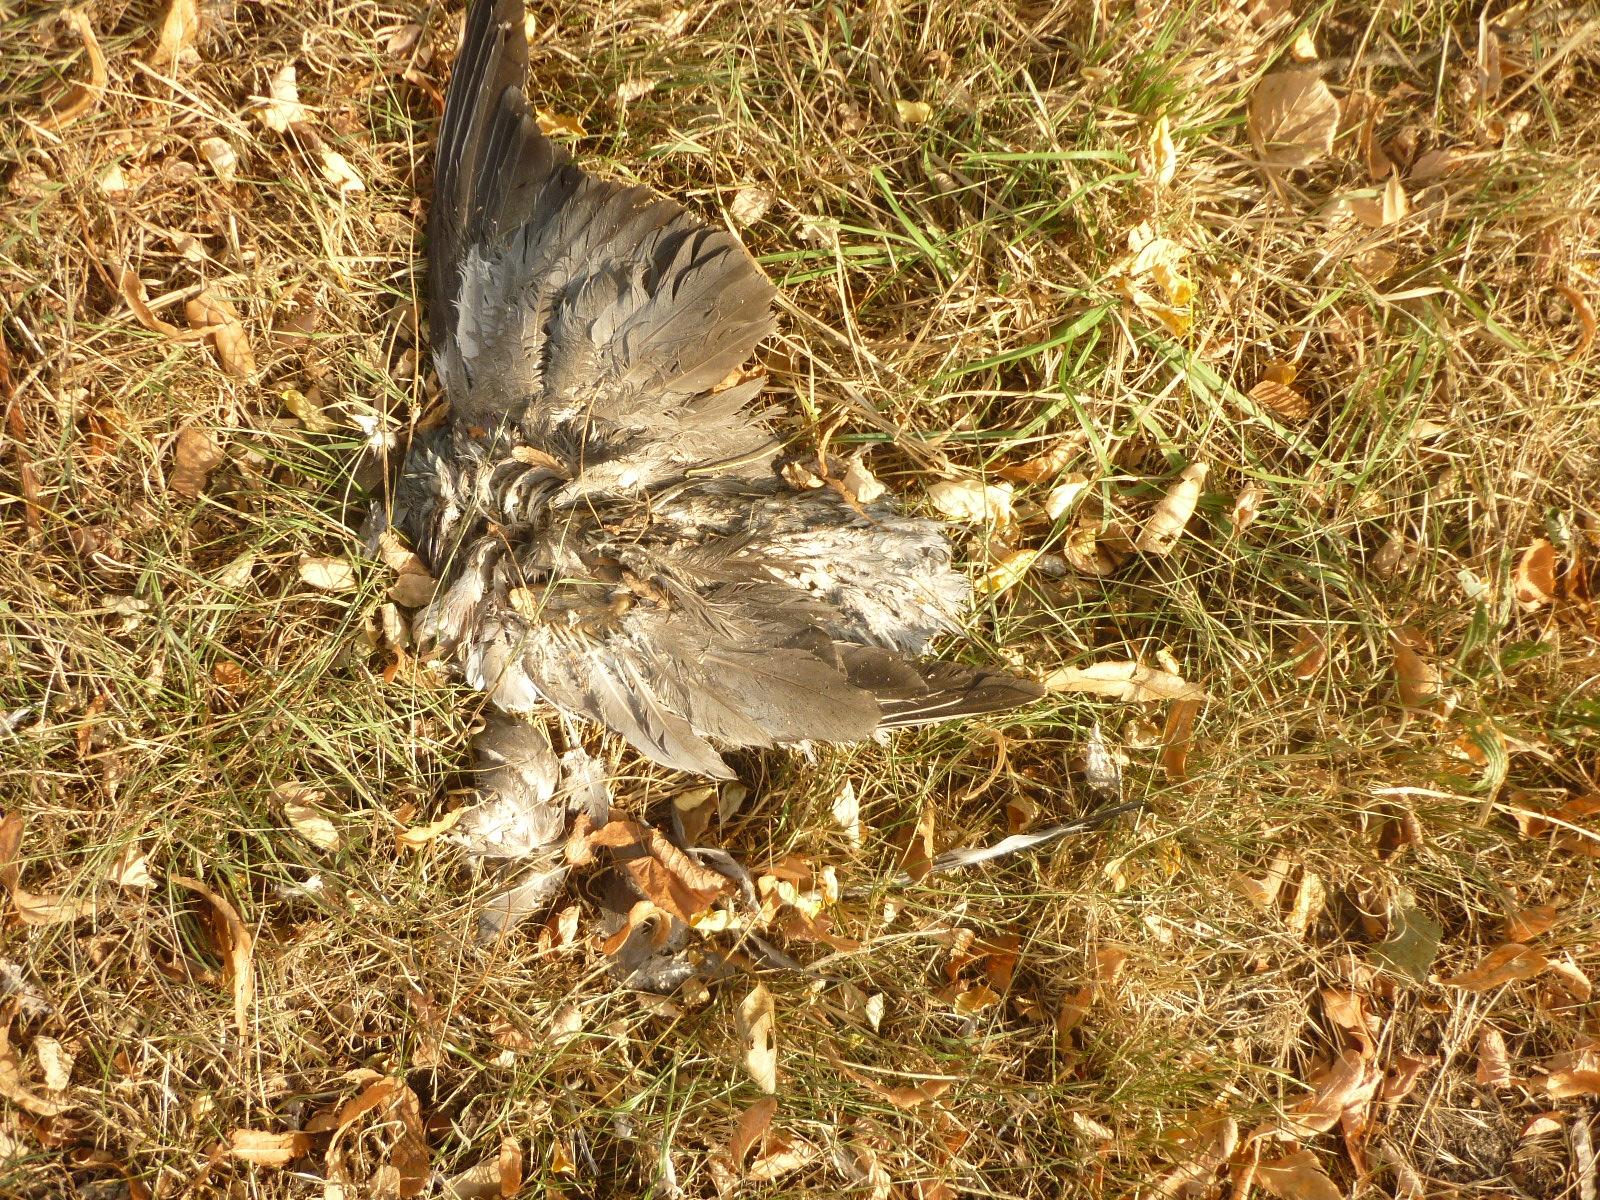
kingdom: Animalia
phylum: Chordata
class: Aves
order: Columbiformes
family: Columbidae
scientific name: Columbidae
